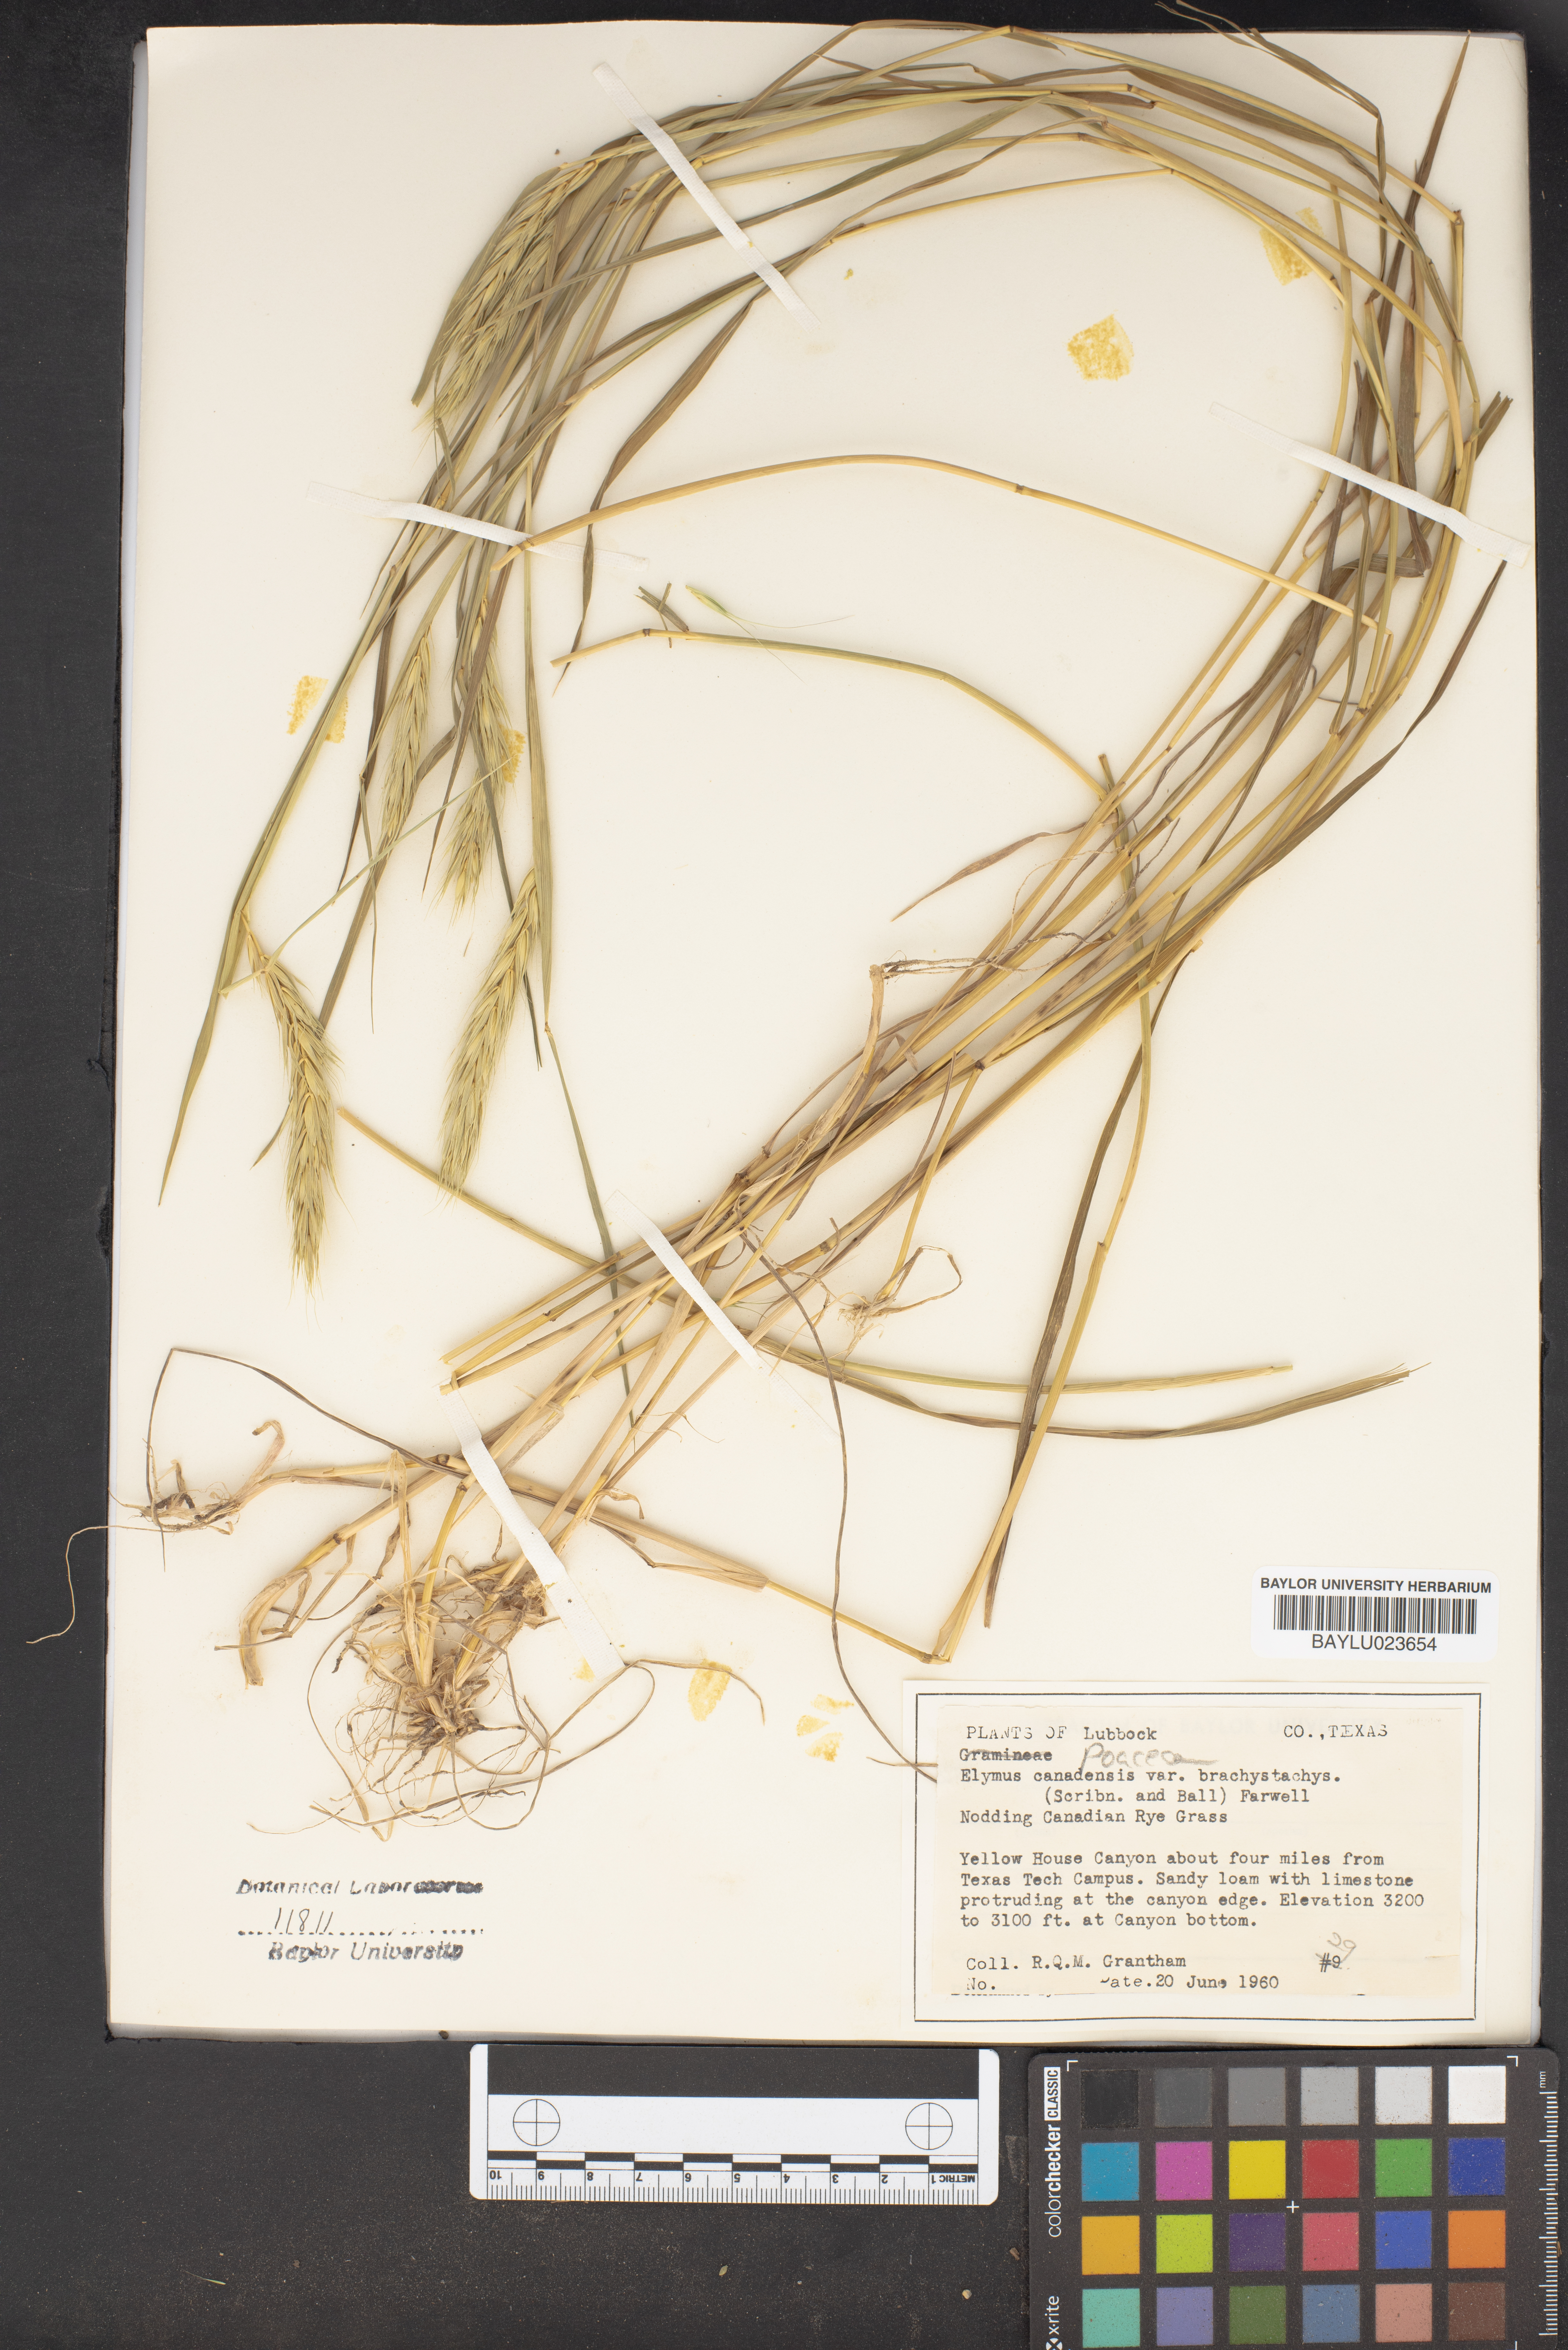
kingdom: Plantae
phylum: Tracheophyta
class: Liliopsida
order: Poales
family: Poaceae
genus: Elymus
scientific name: Elymus canadensis
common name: Canada wild rye
